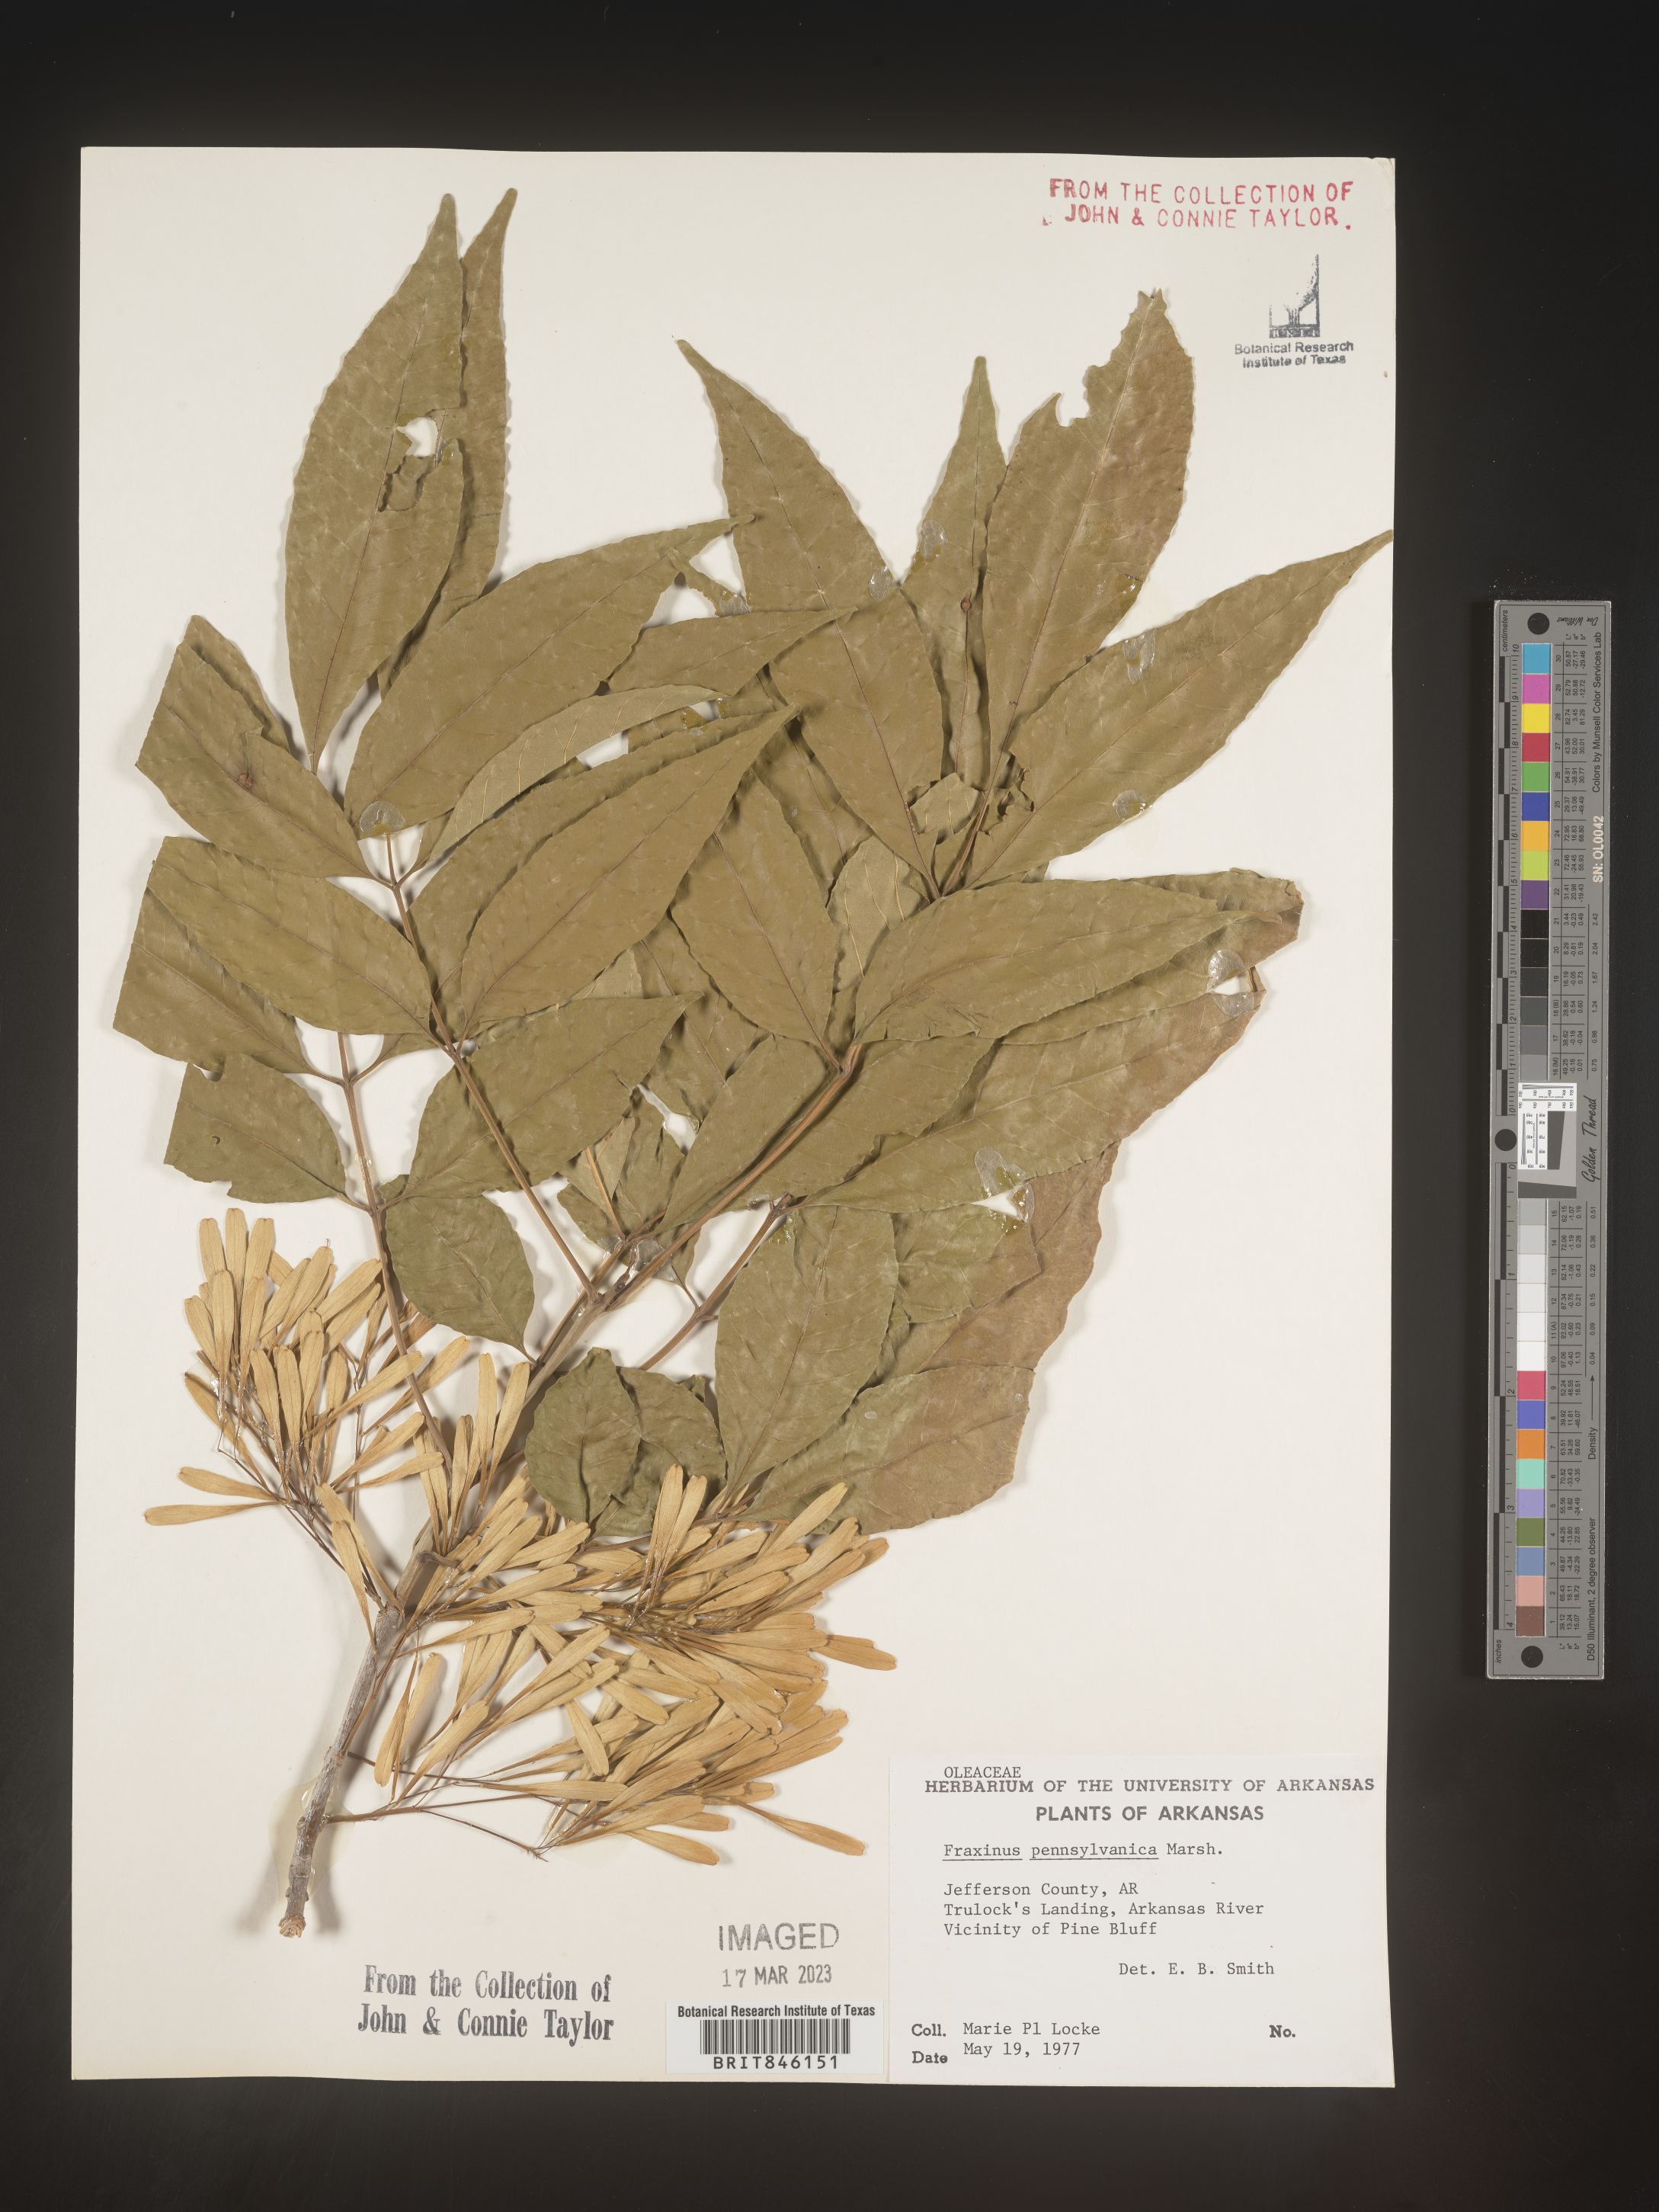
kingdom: Plantae
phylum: Tracheophyta
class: Magnoliopsida
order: Lamiales
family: Oleaceae
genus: Fraxinus
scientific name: Fraxinus pennsylvanica
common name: Green ash
